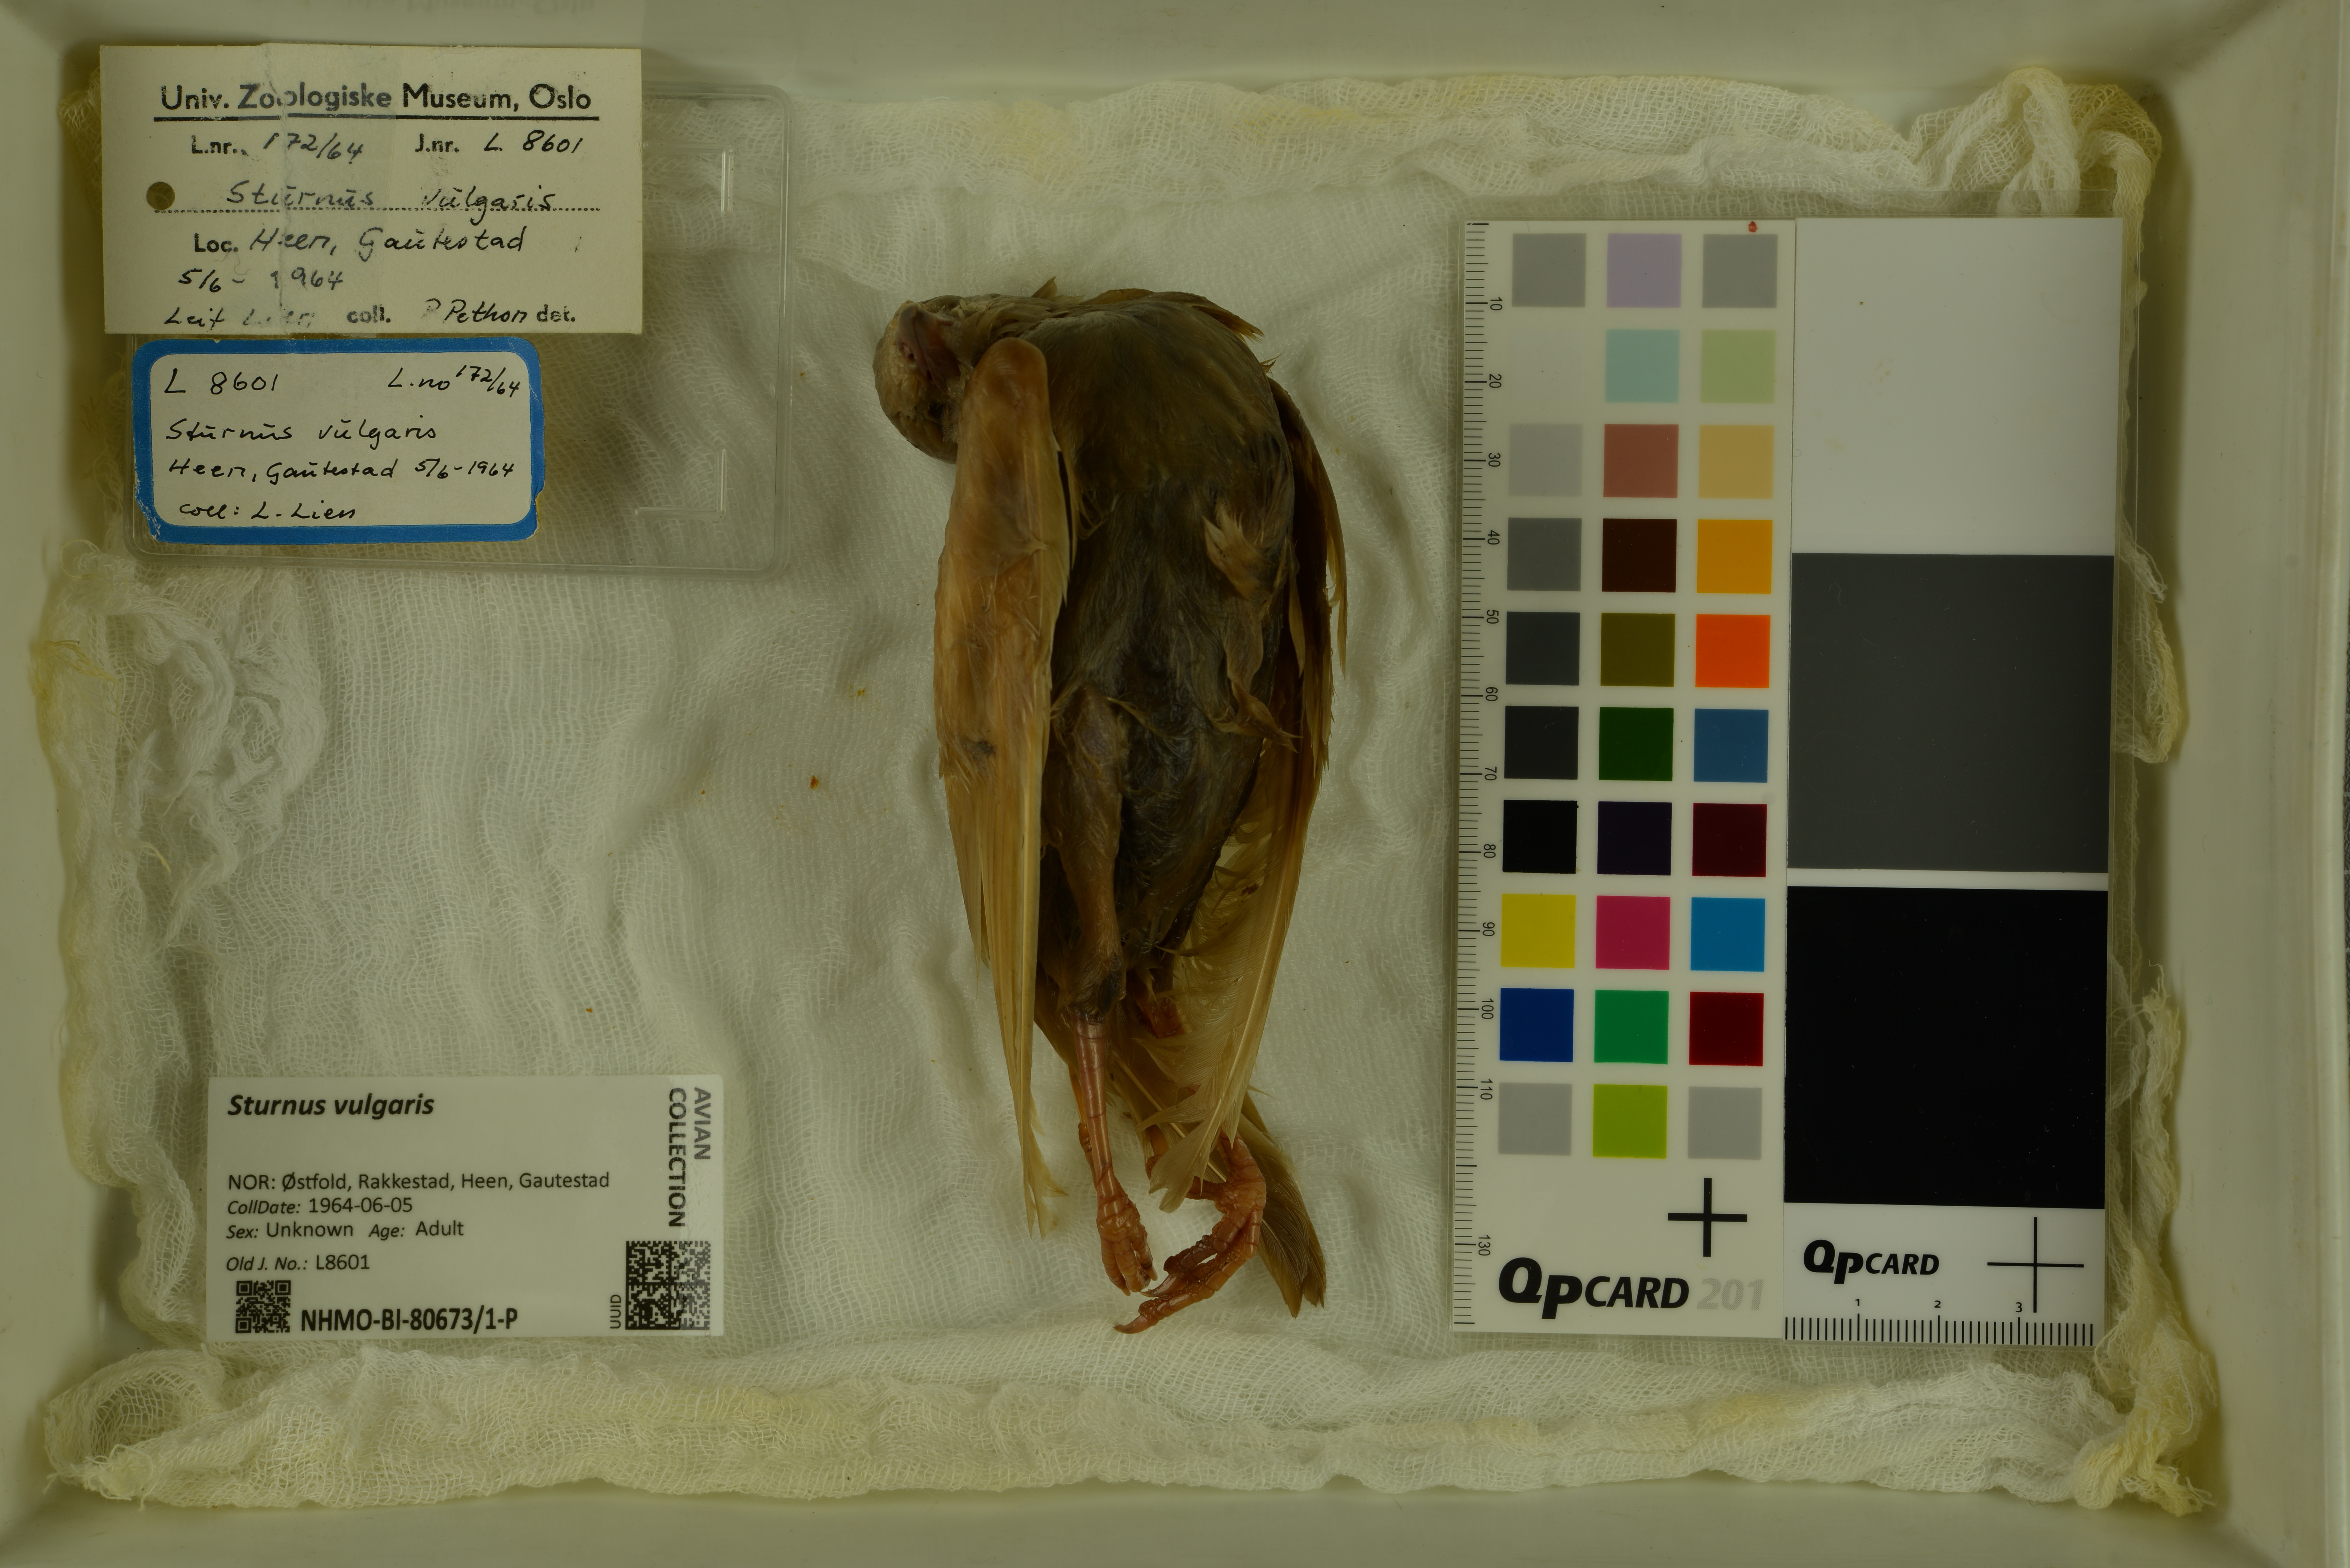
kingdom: Animalia
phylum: Chordata
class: Aves
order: Passeriformes
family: Sturnidae
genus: Sturnus
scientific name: Sturnus vulgaris
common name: Common starling
